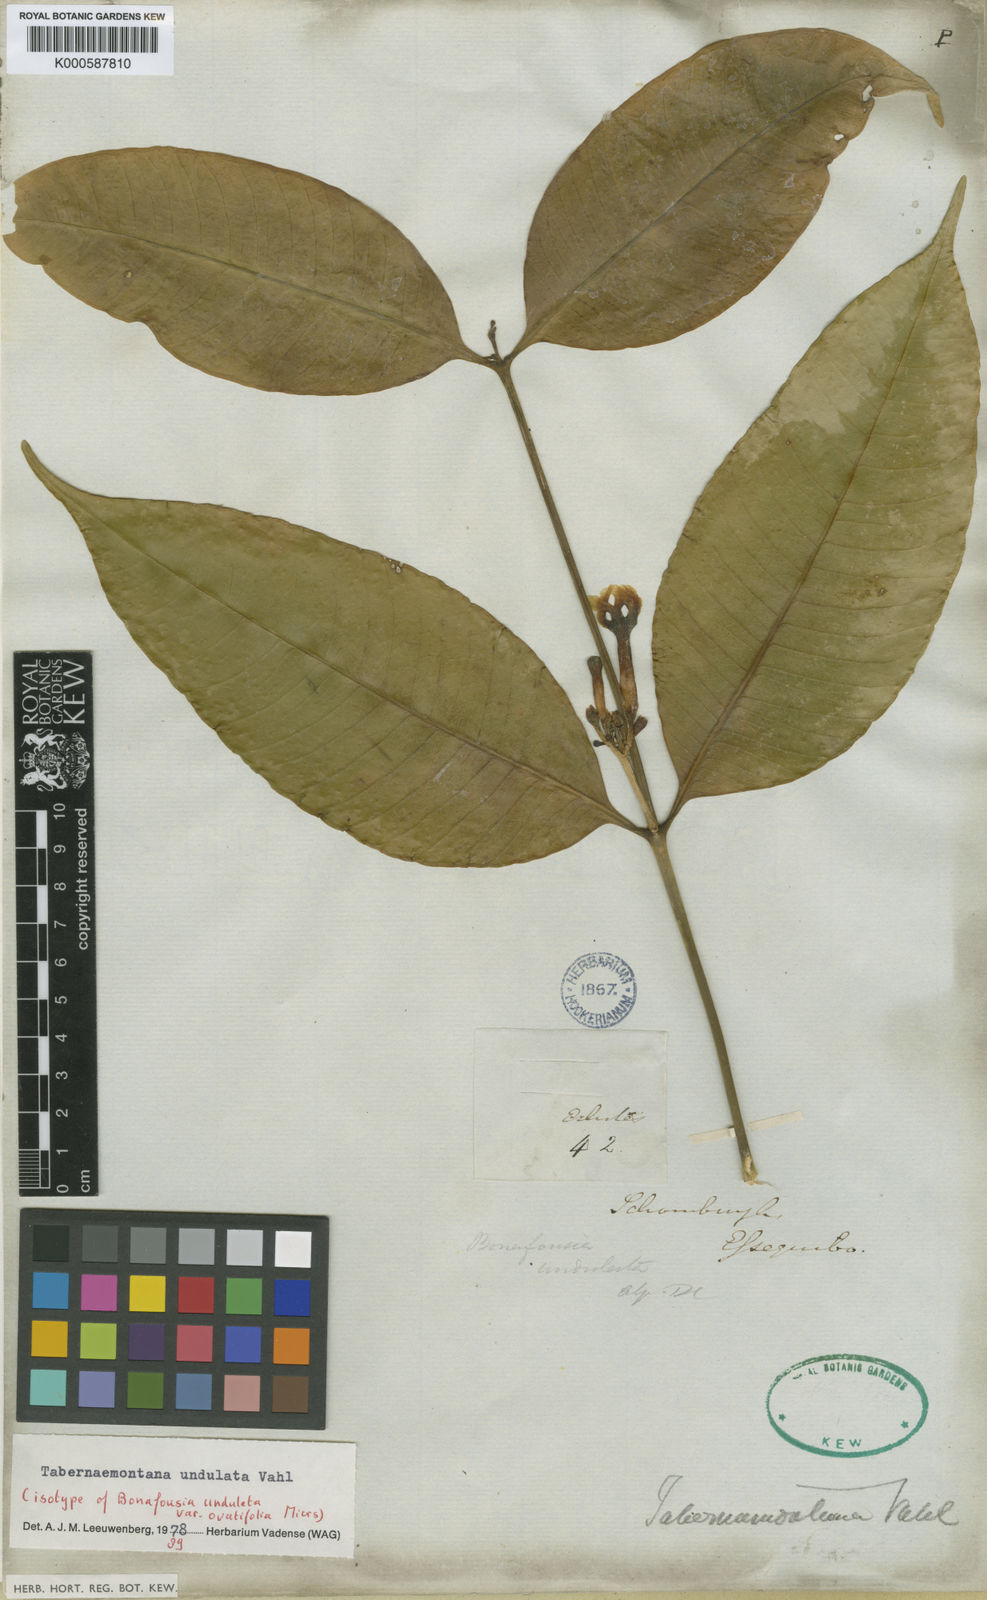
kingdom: Plantae
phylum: Tracheophyta
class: Magnoliopsida
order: Gentianales
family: Apocynaceae
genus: Tabernaemontana
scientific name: Tabernaemontana undulata
